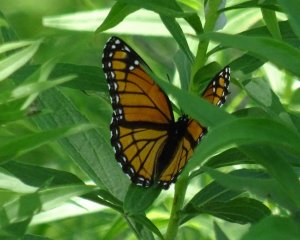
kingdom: Animalia
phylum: Arthropoda
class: Insecta
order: Lepidoptera
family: Nymphalidae
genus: Limenitis
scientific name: Limenitis archippus
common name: Viceroy
